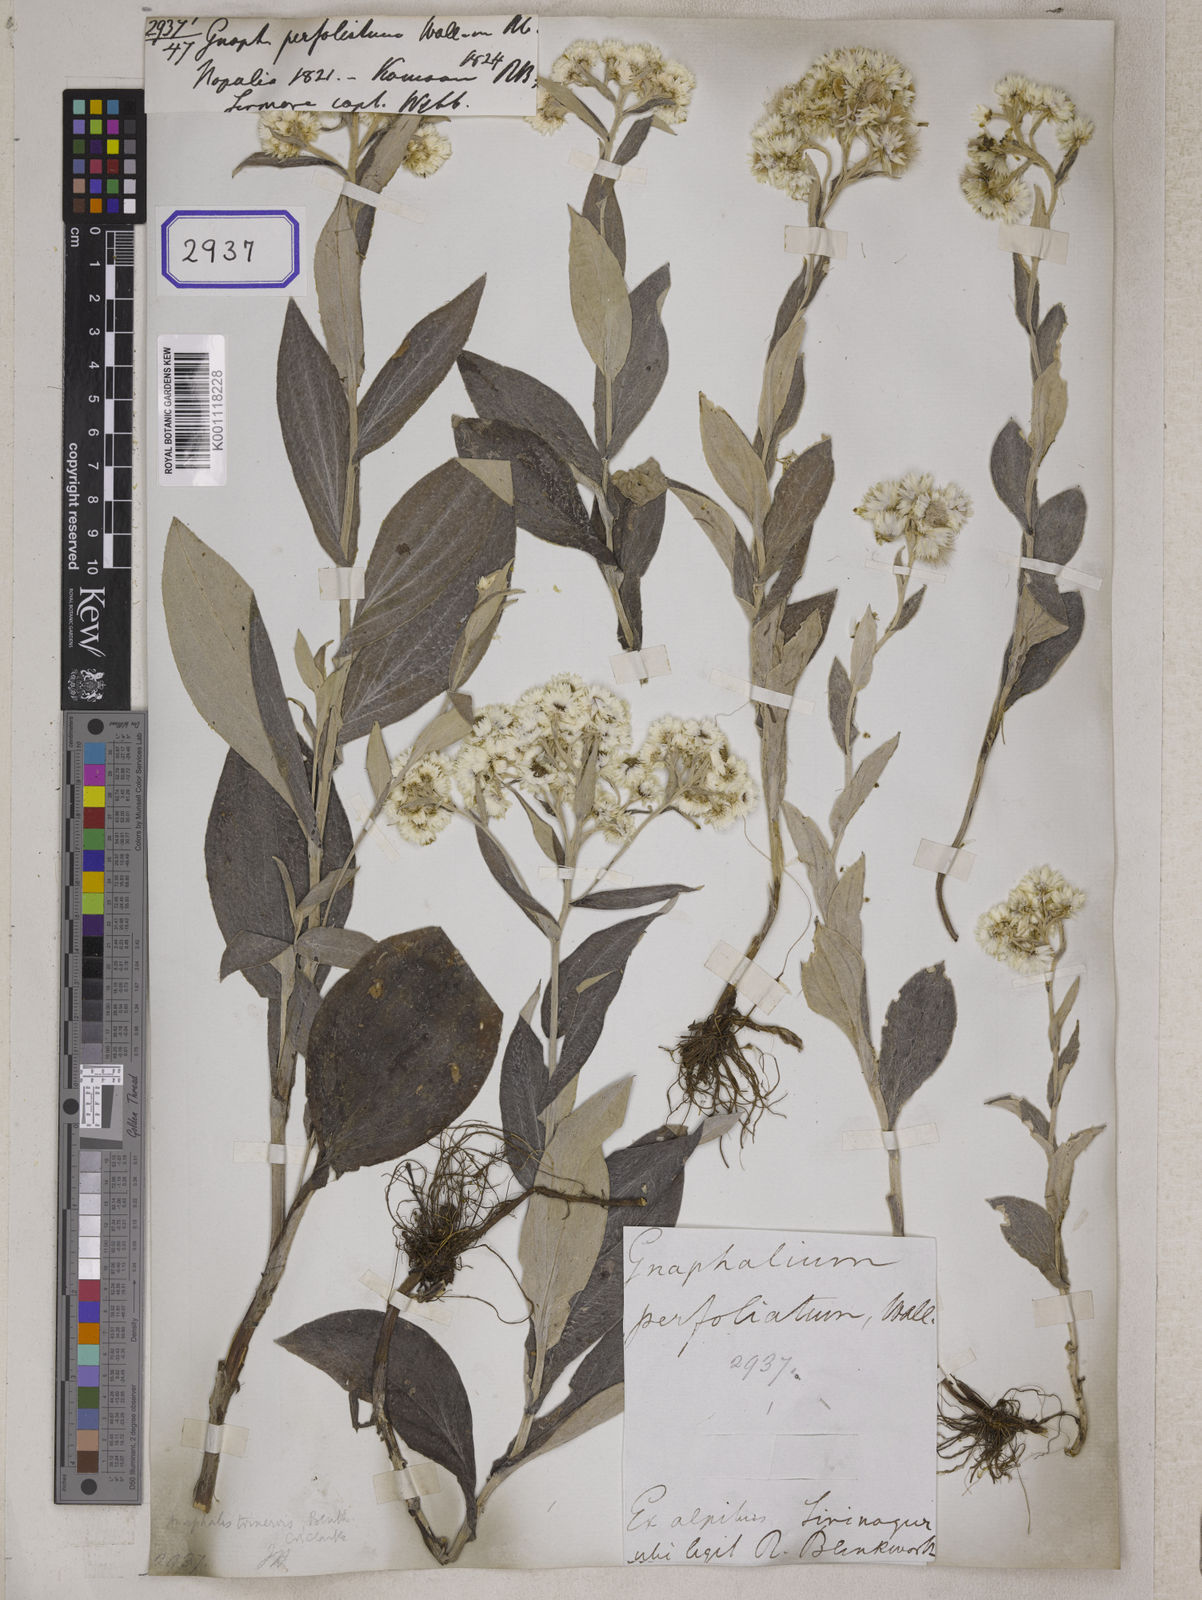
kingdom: Plantae
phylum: Tracheophyta
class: Magnoliopsida
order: Asterales
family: Asteraceae
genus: Anaphalis
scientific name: Anaphalis triplinervis
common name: Pearly everlasting
